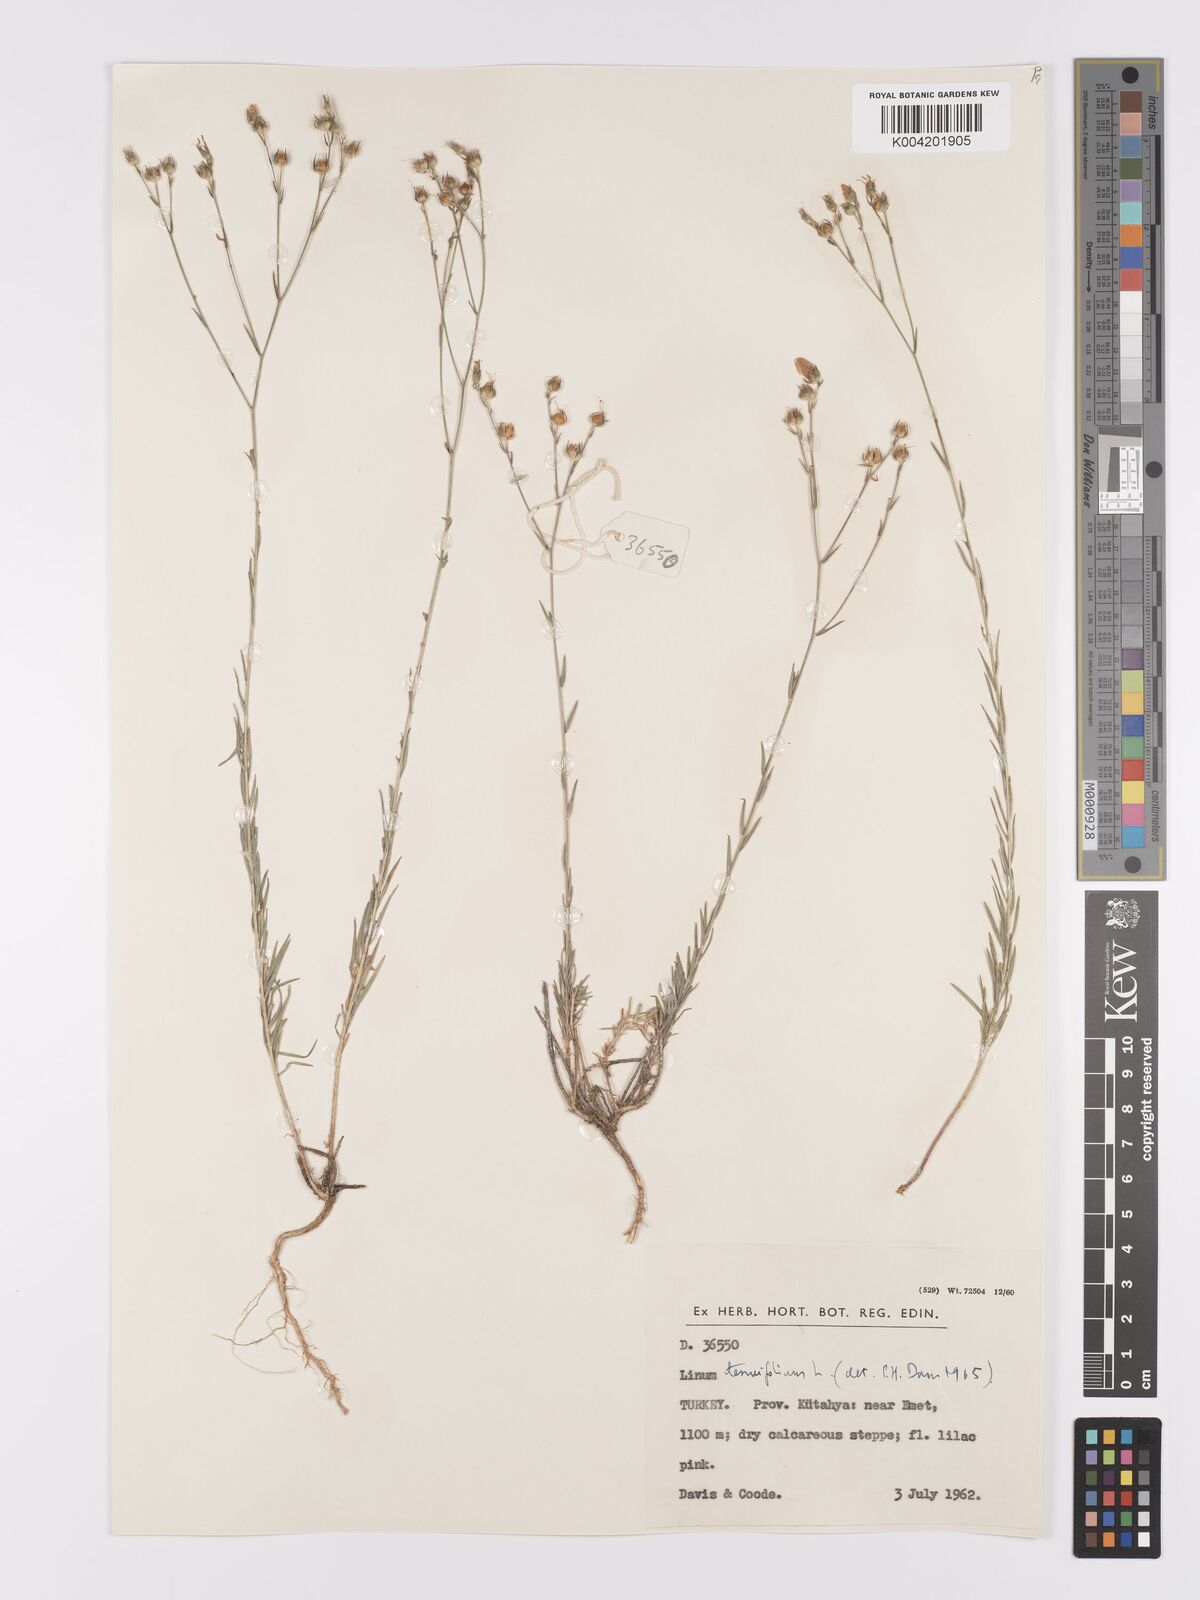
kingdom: Plantae
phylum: Tracheophyta
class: Magnoliopsida
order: Malpighiales
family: Linaceae
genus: Linum
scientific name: Linum
